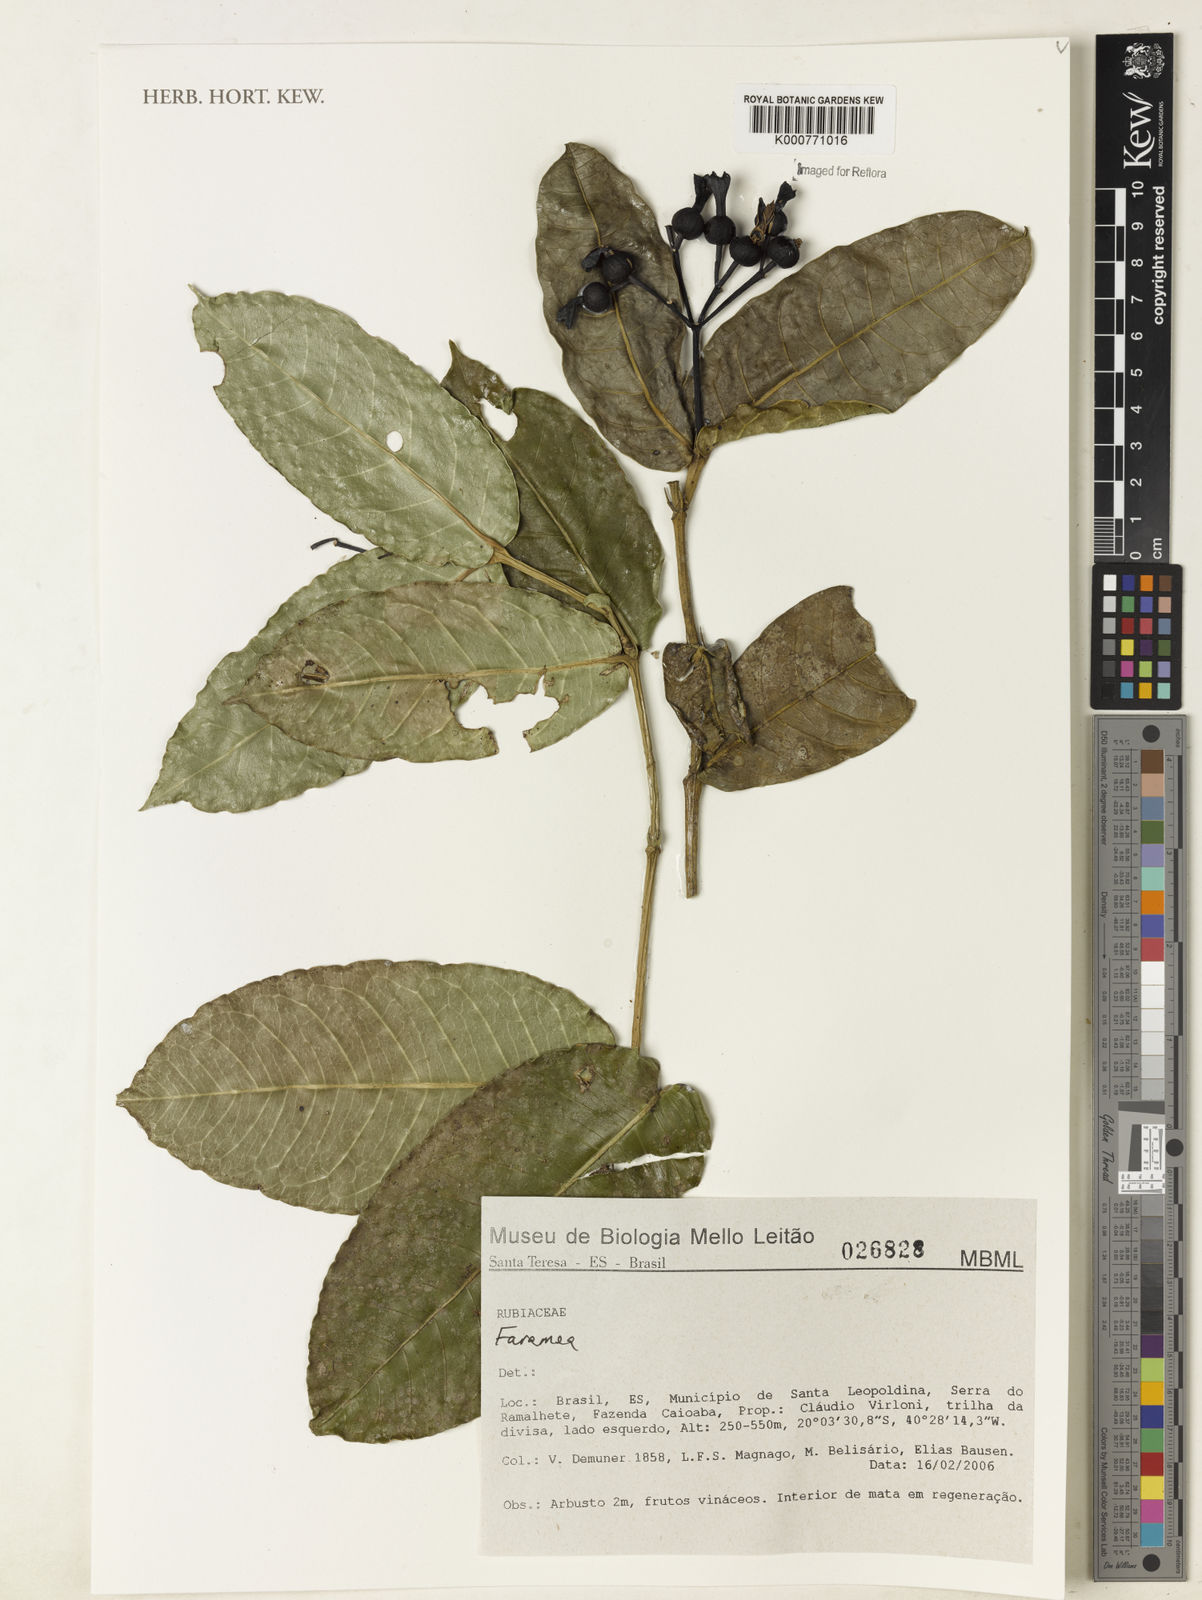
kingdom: Plantae
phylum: Tracheophyta
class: Magnoliopsida
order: Gentianales
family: Rubiaceae
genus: Faramea
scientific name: Faramea
